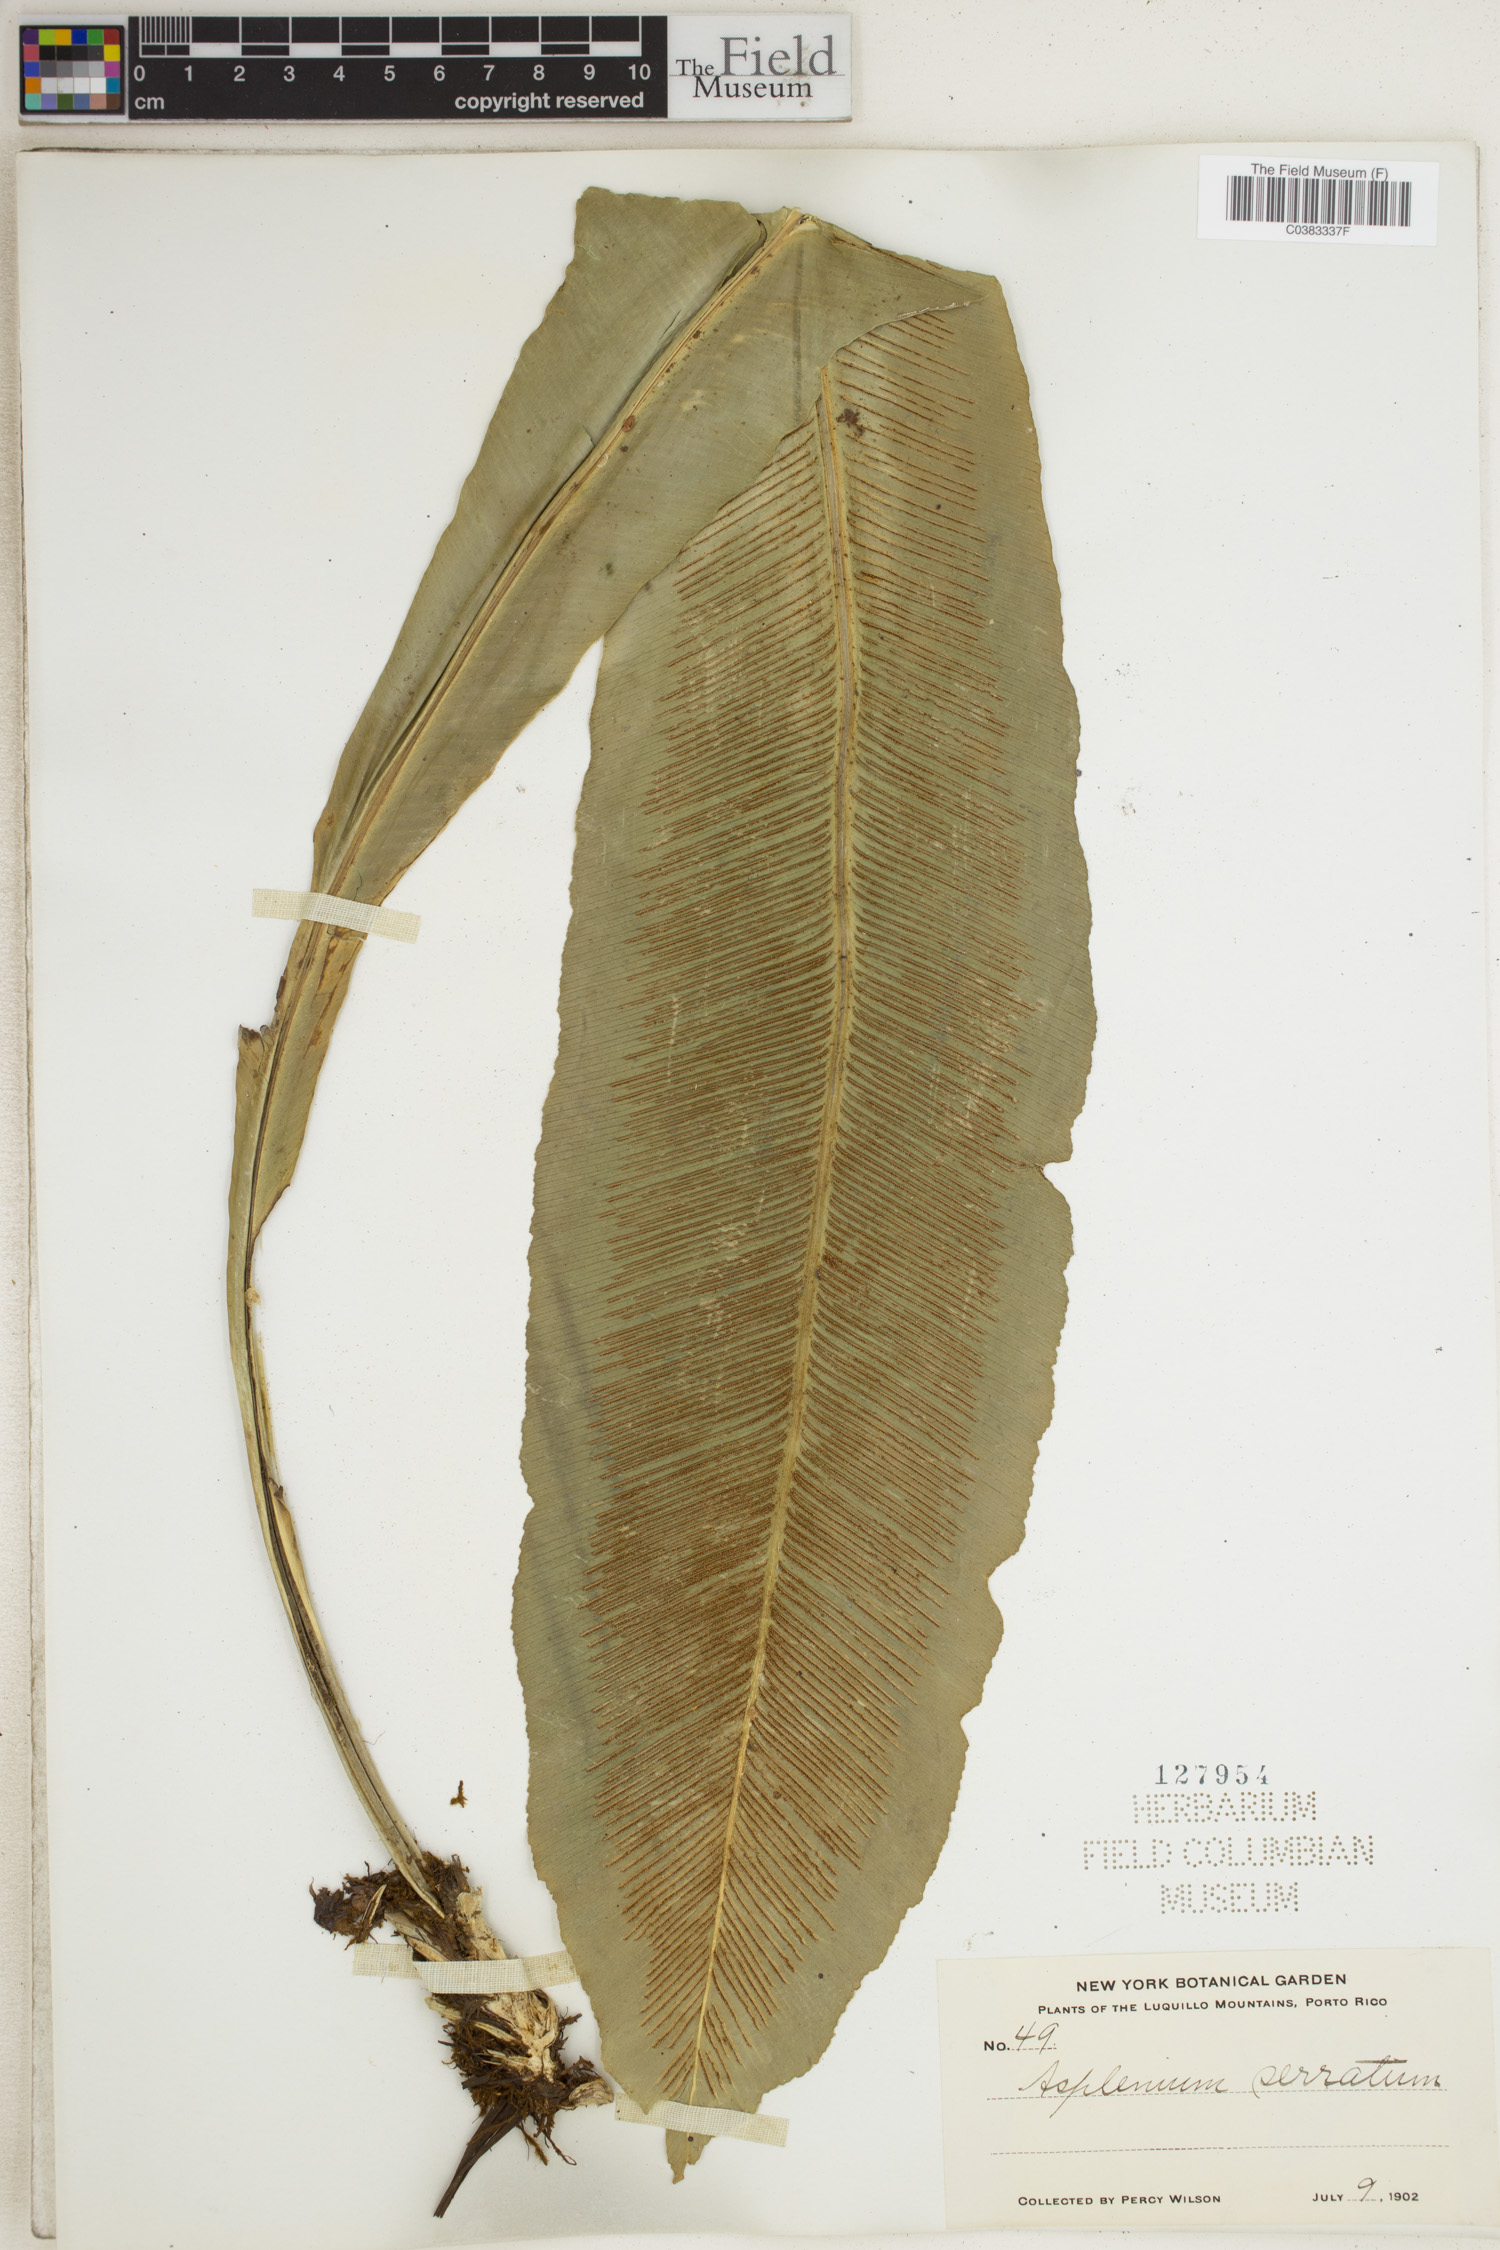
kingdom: Plantae
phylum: Tracheophyta
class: Polypodiopsida
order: Polypodiales
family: Aspleniaceae
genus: Asplenium
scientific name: Asplenium serratum
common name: Wild birdnest fern
